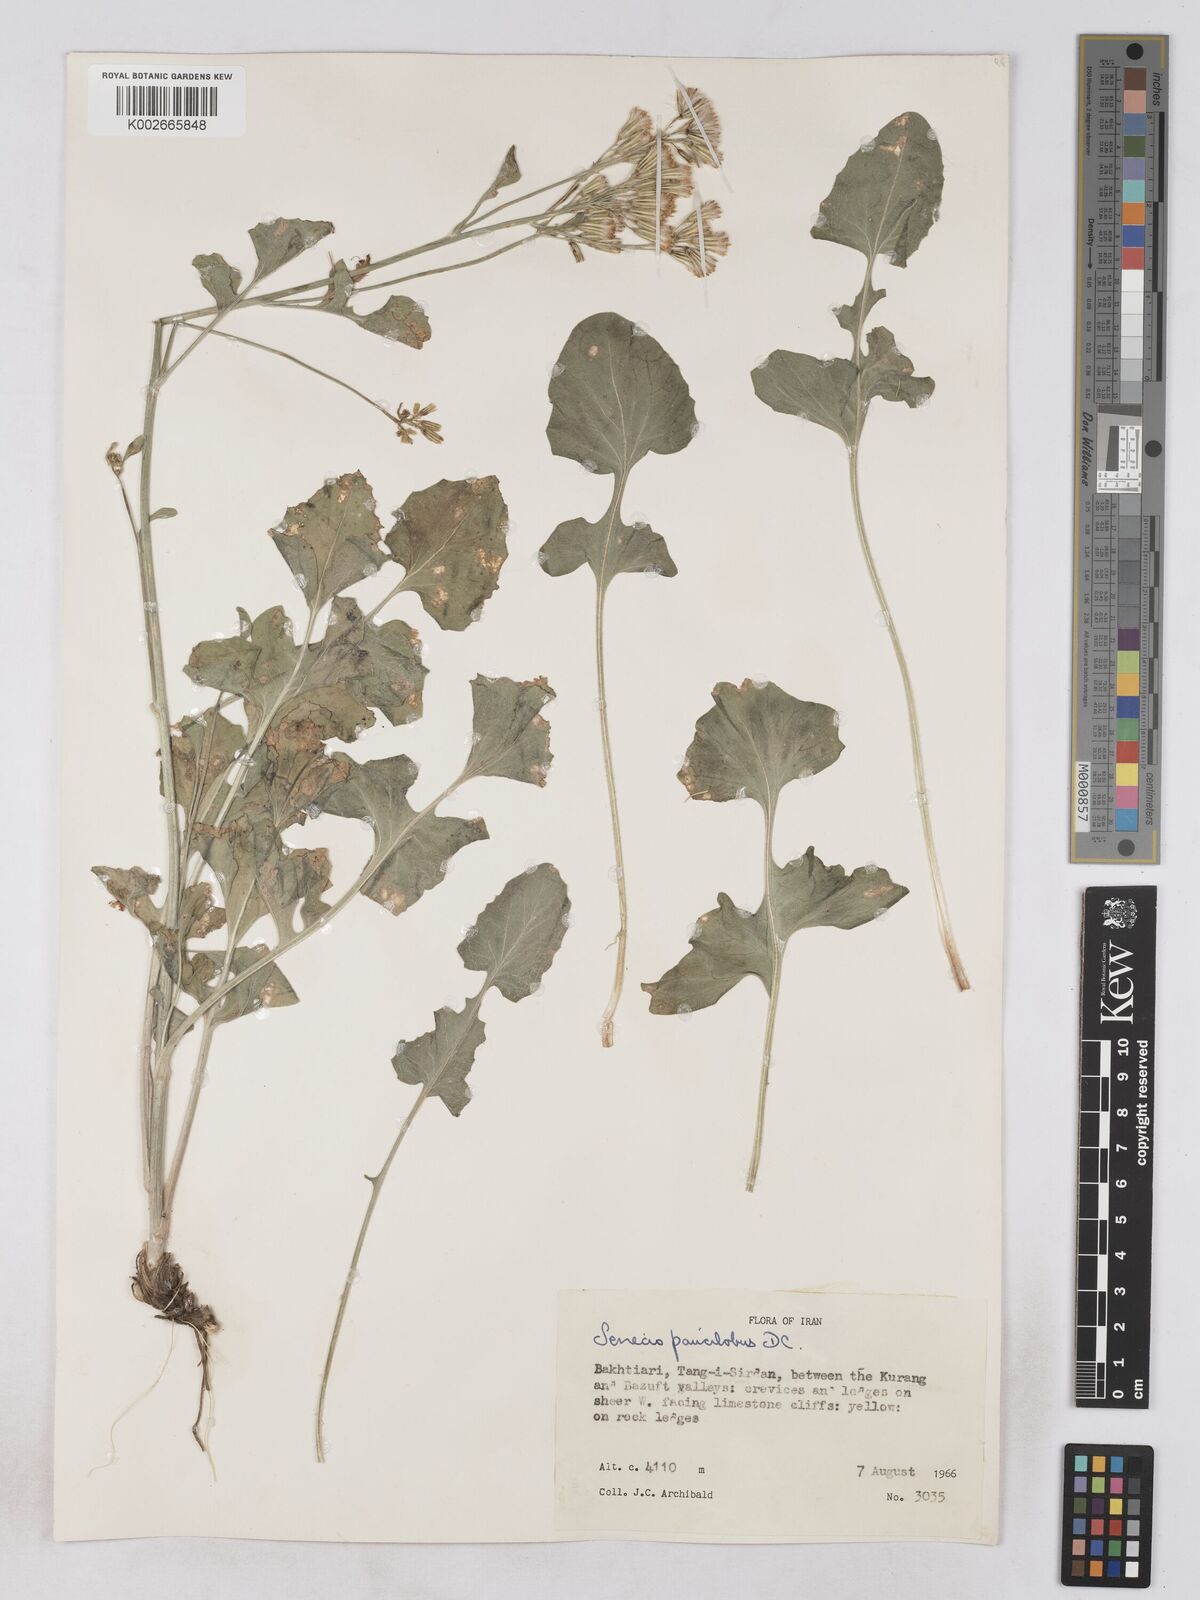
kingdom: Plantae
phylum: Tracheophyta
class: Magnoliopsida
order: Asterales
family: Asteraceae
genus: Iranecio
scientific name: Iranecio paucilobus
